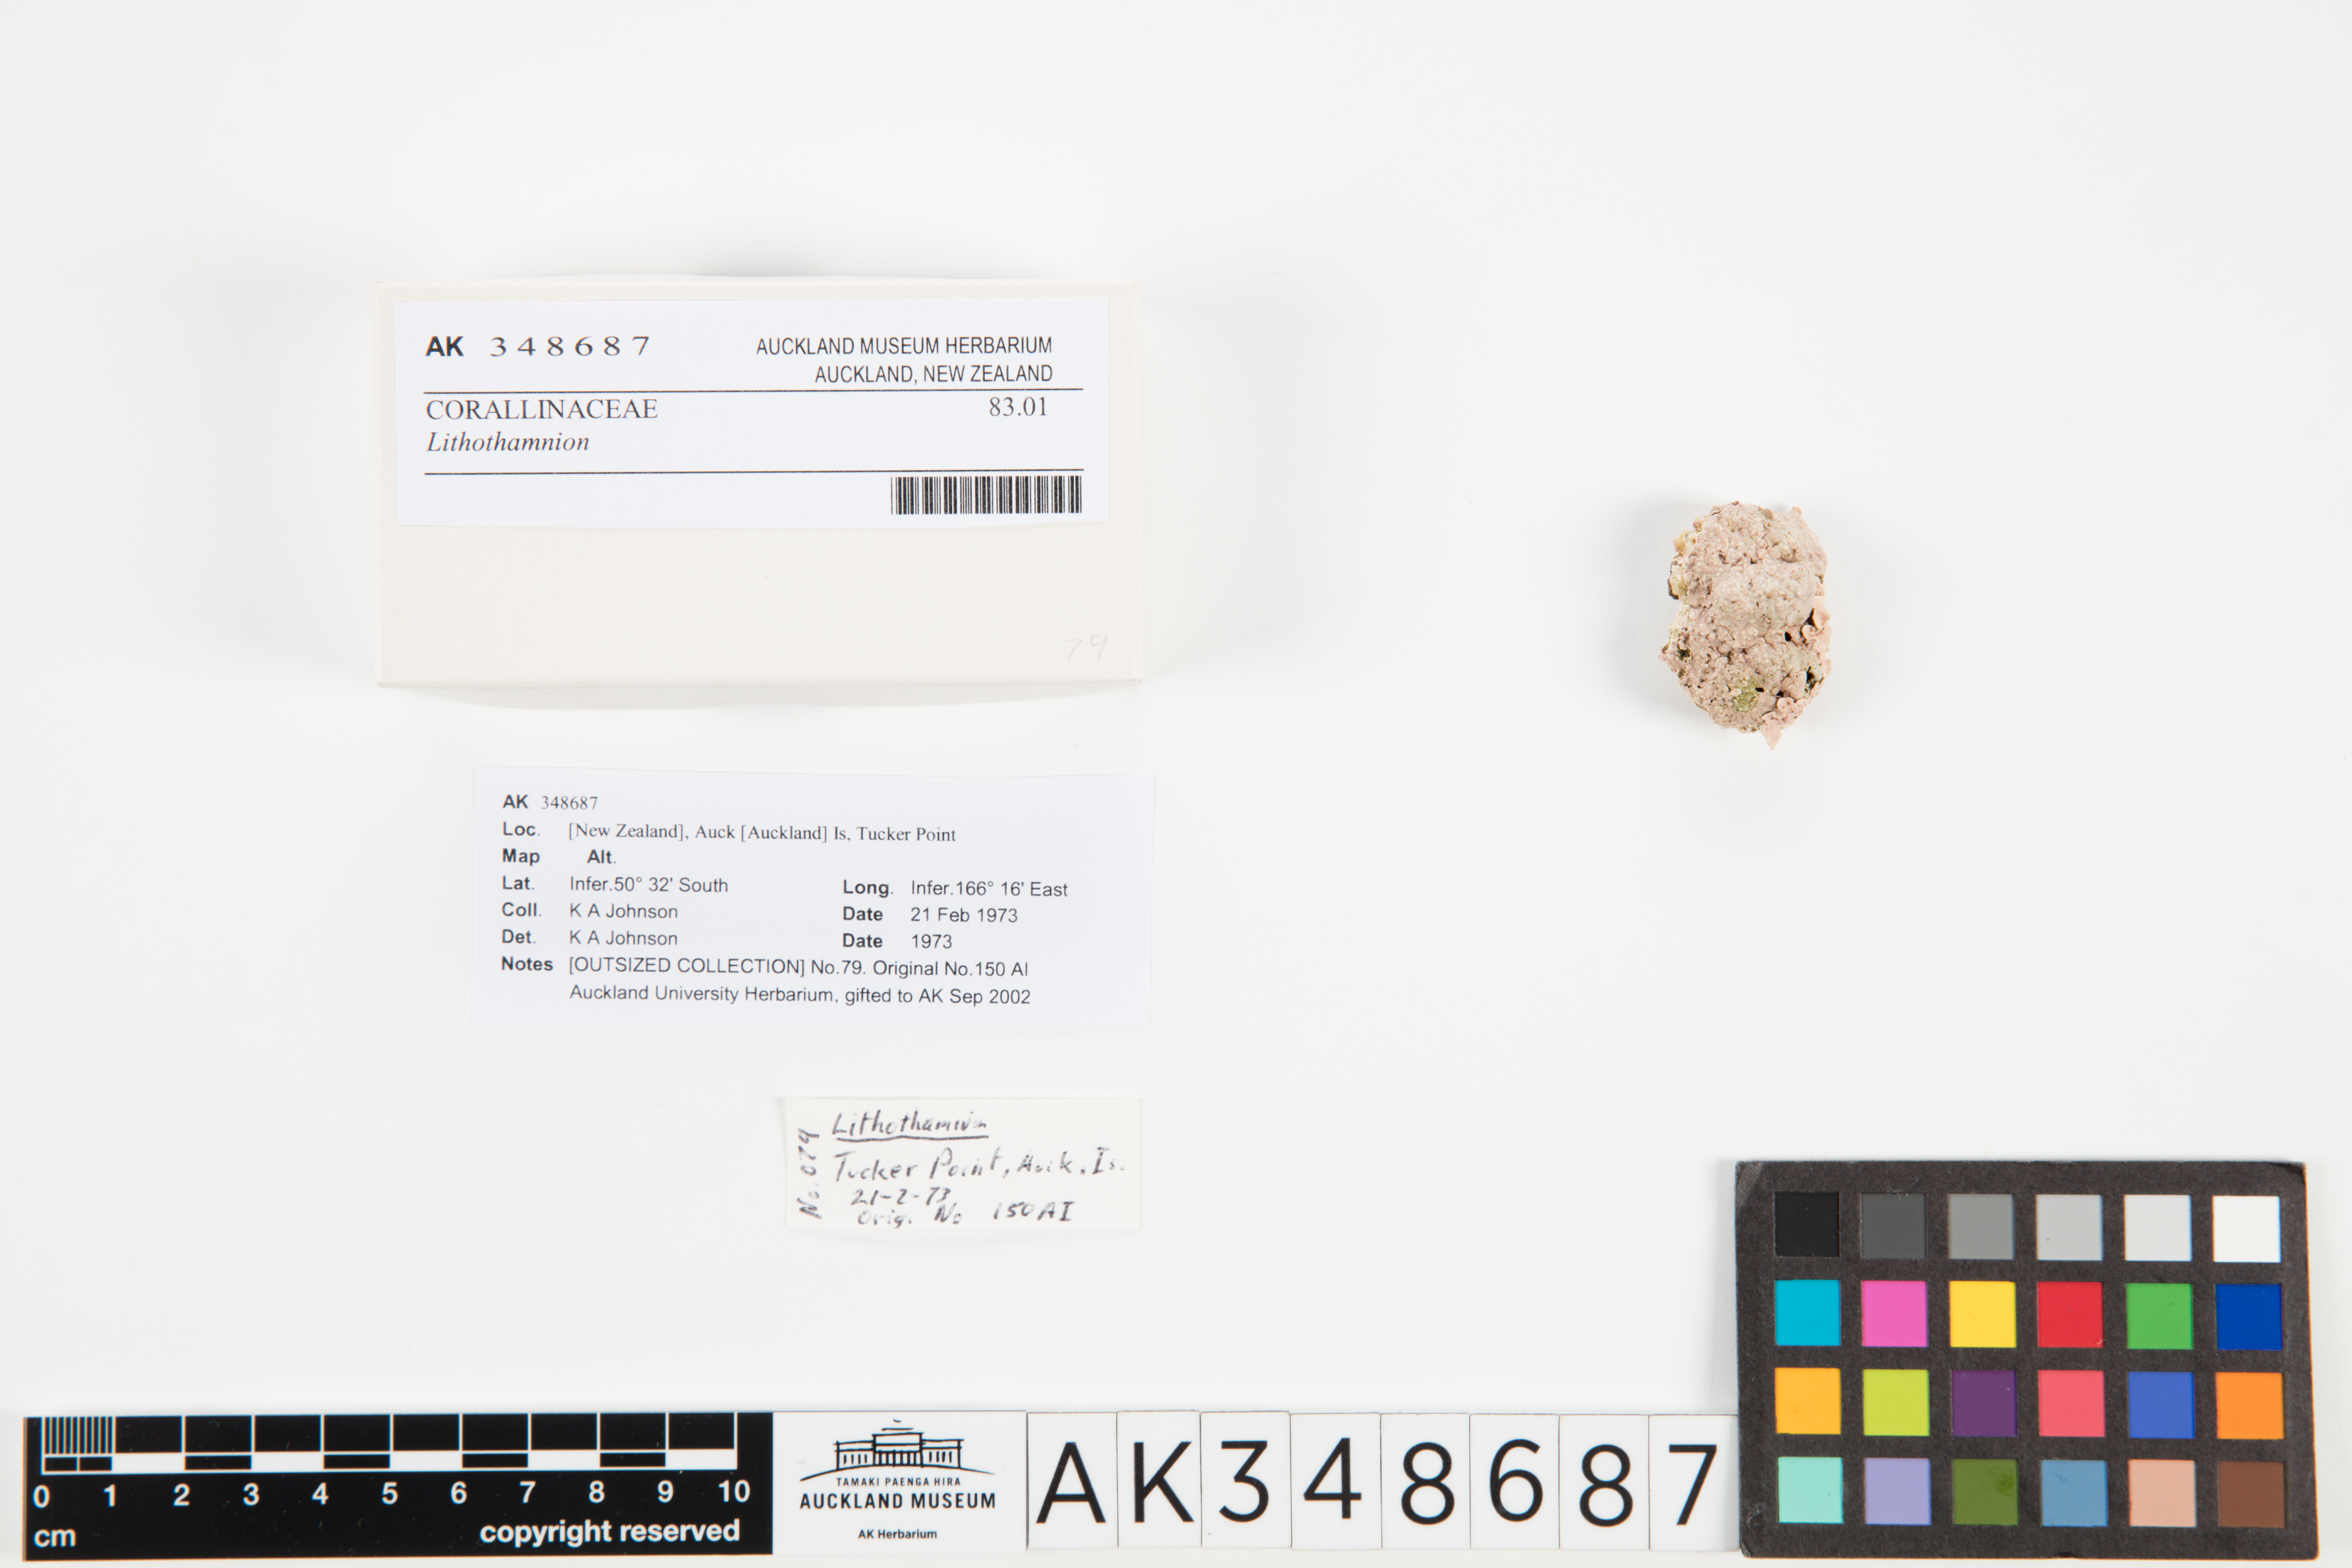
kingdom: Plantae
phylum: Rhodophyta
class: Florideophyceae
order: Corallinales
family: Hapalidiaceae
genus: Lithothamnion
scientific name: Lithothamnion
